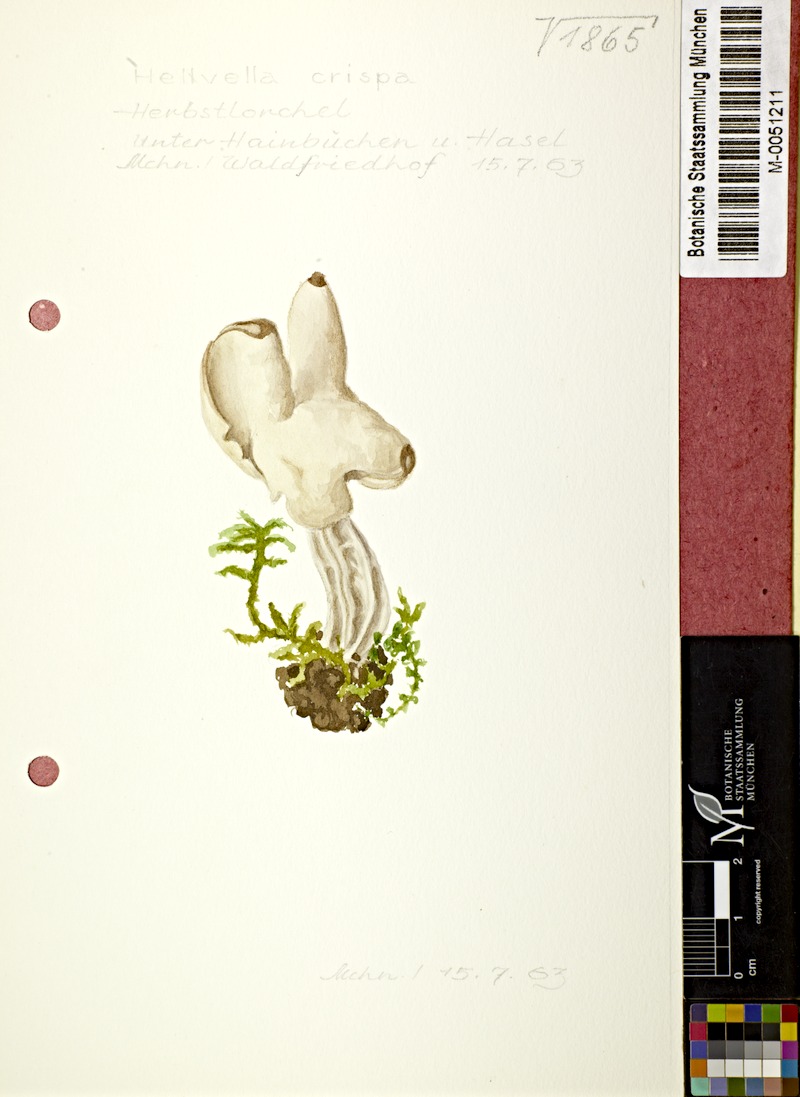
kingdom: Fungi
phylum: Ascomycota
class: Pezizomycetes
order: Pezizales
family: Helvellaceae
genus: Helvella
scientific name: Helvella crispa
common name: White saddle
